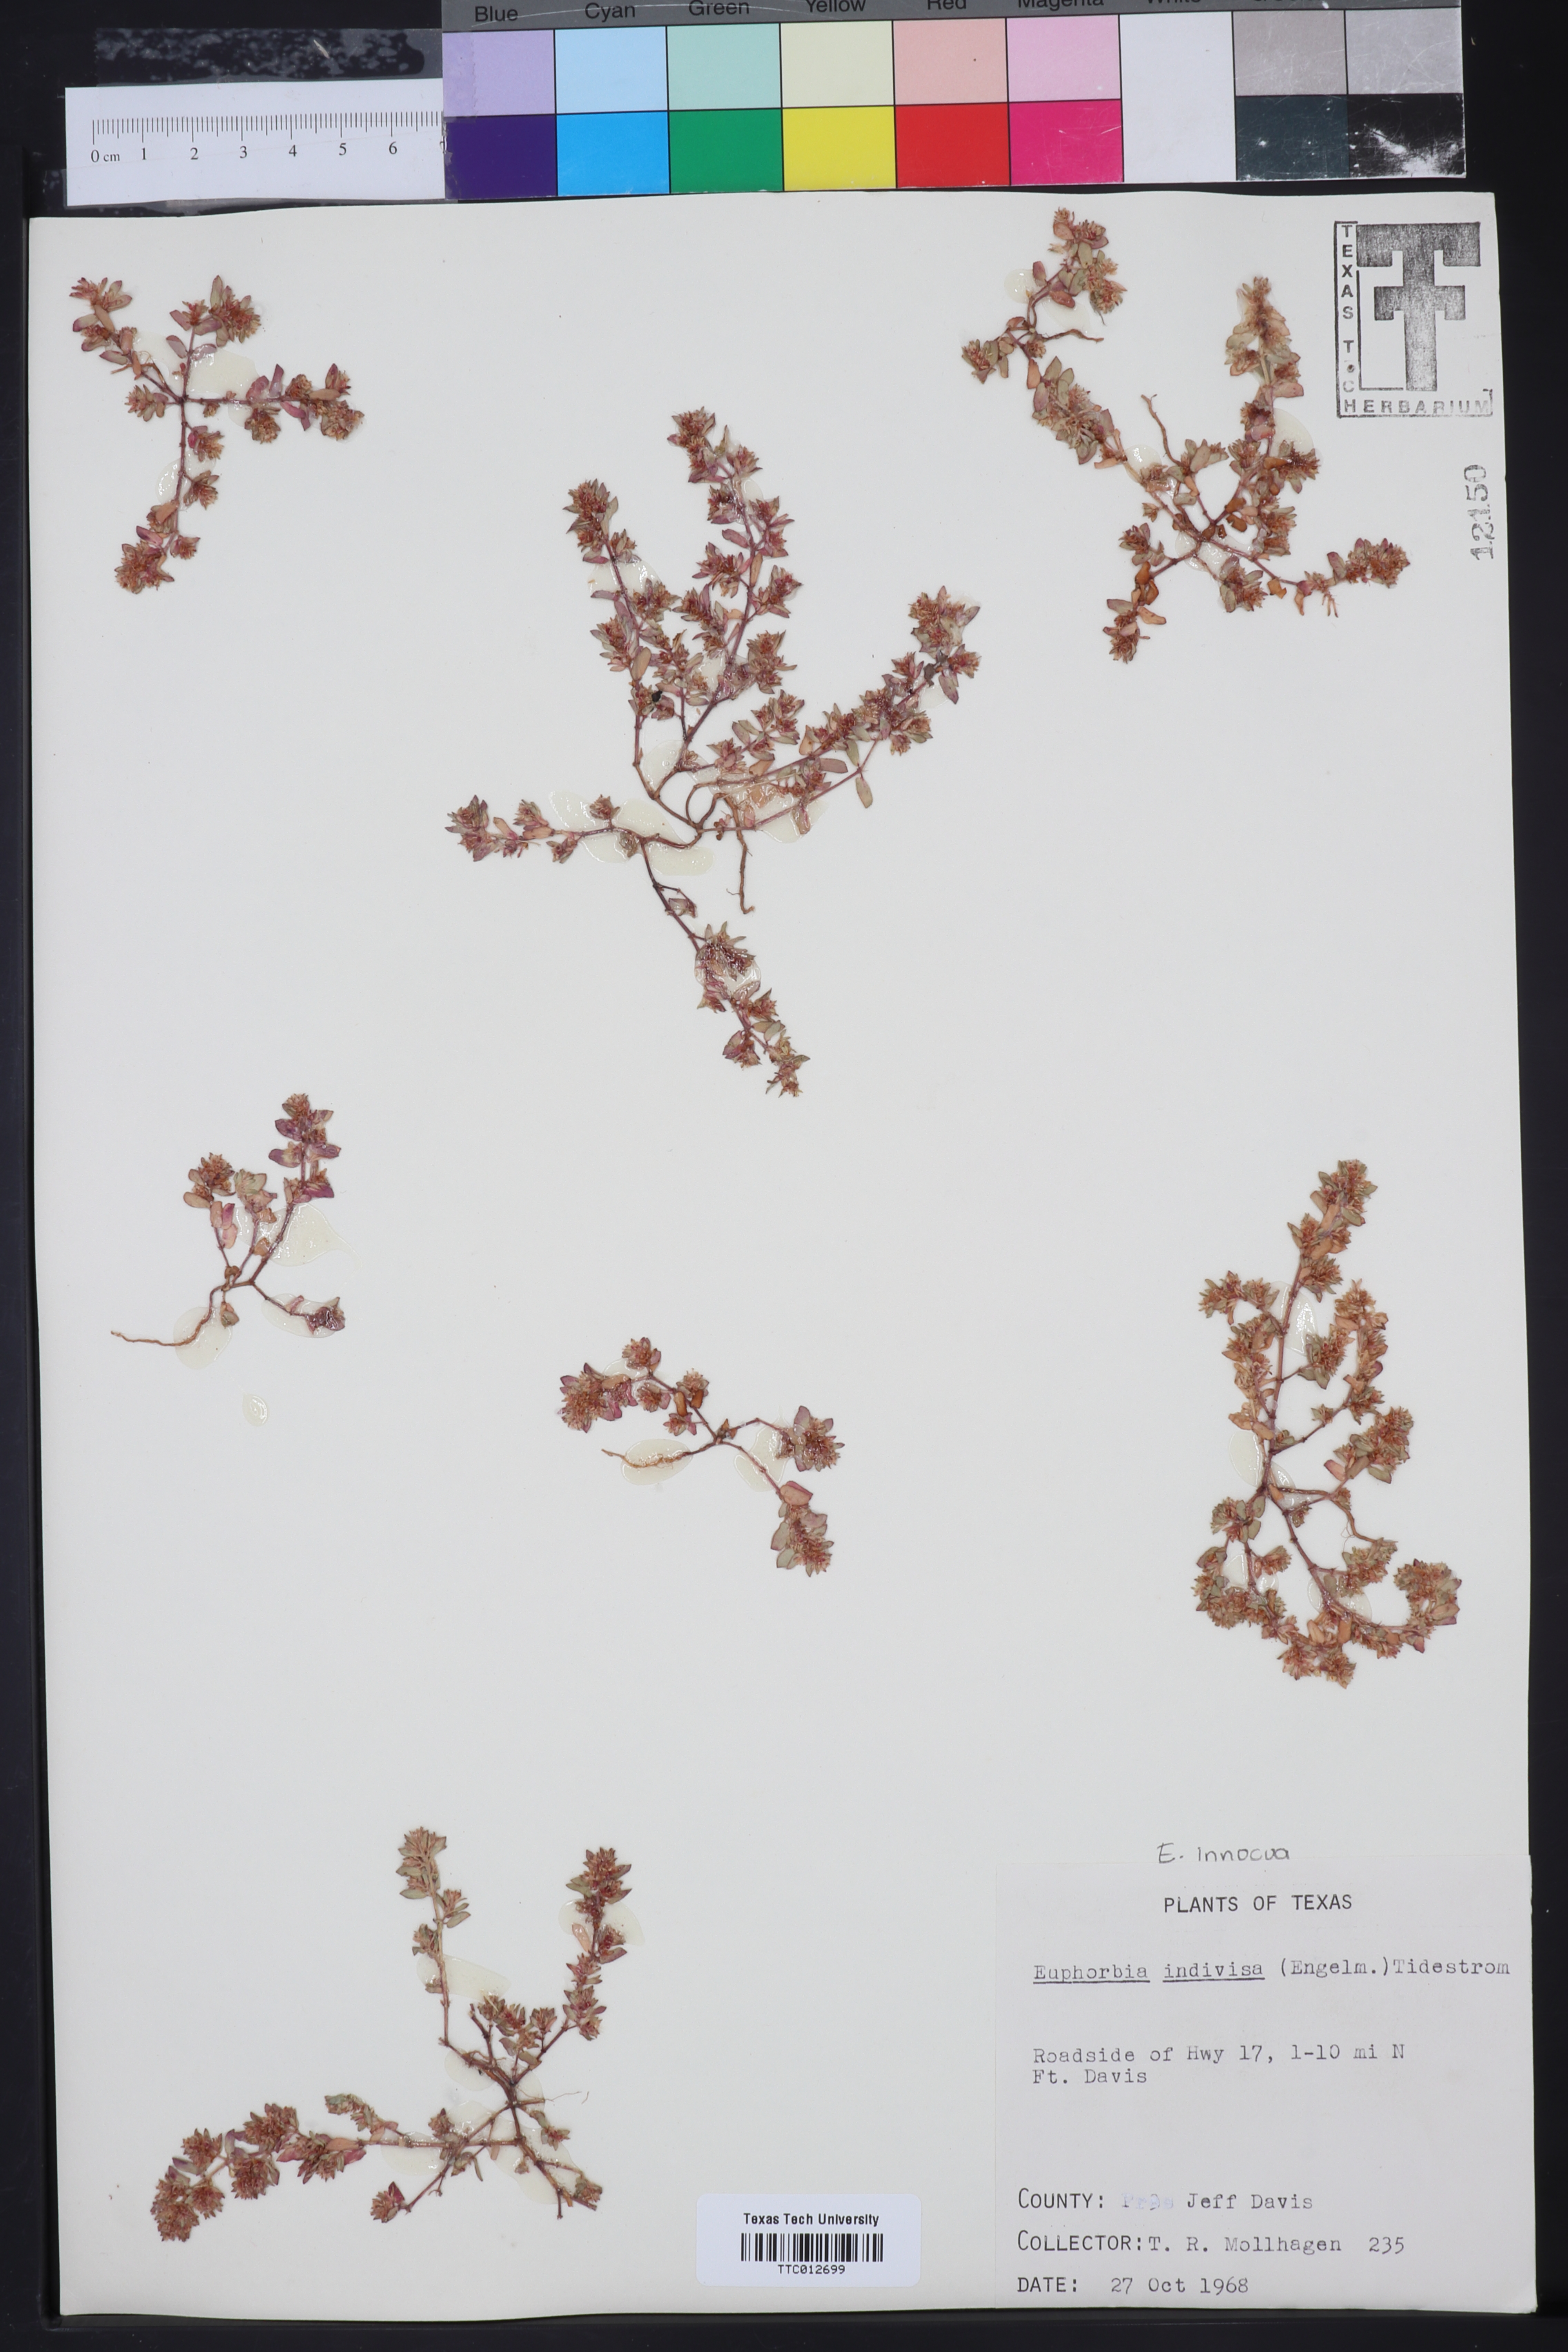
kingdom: Plantae
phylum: Tracheophyta
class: Magnoliopsida
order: Malpighiales
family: Euphorbiaceae
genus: Euphorbia
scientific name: Euphorbia indivisa
